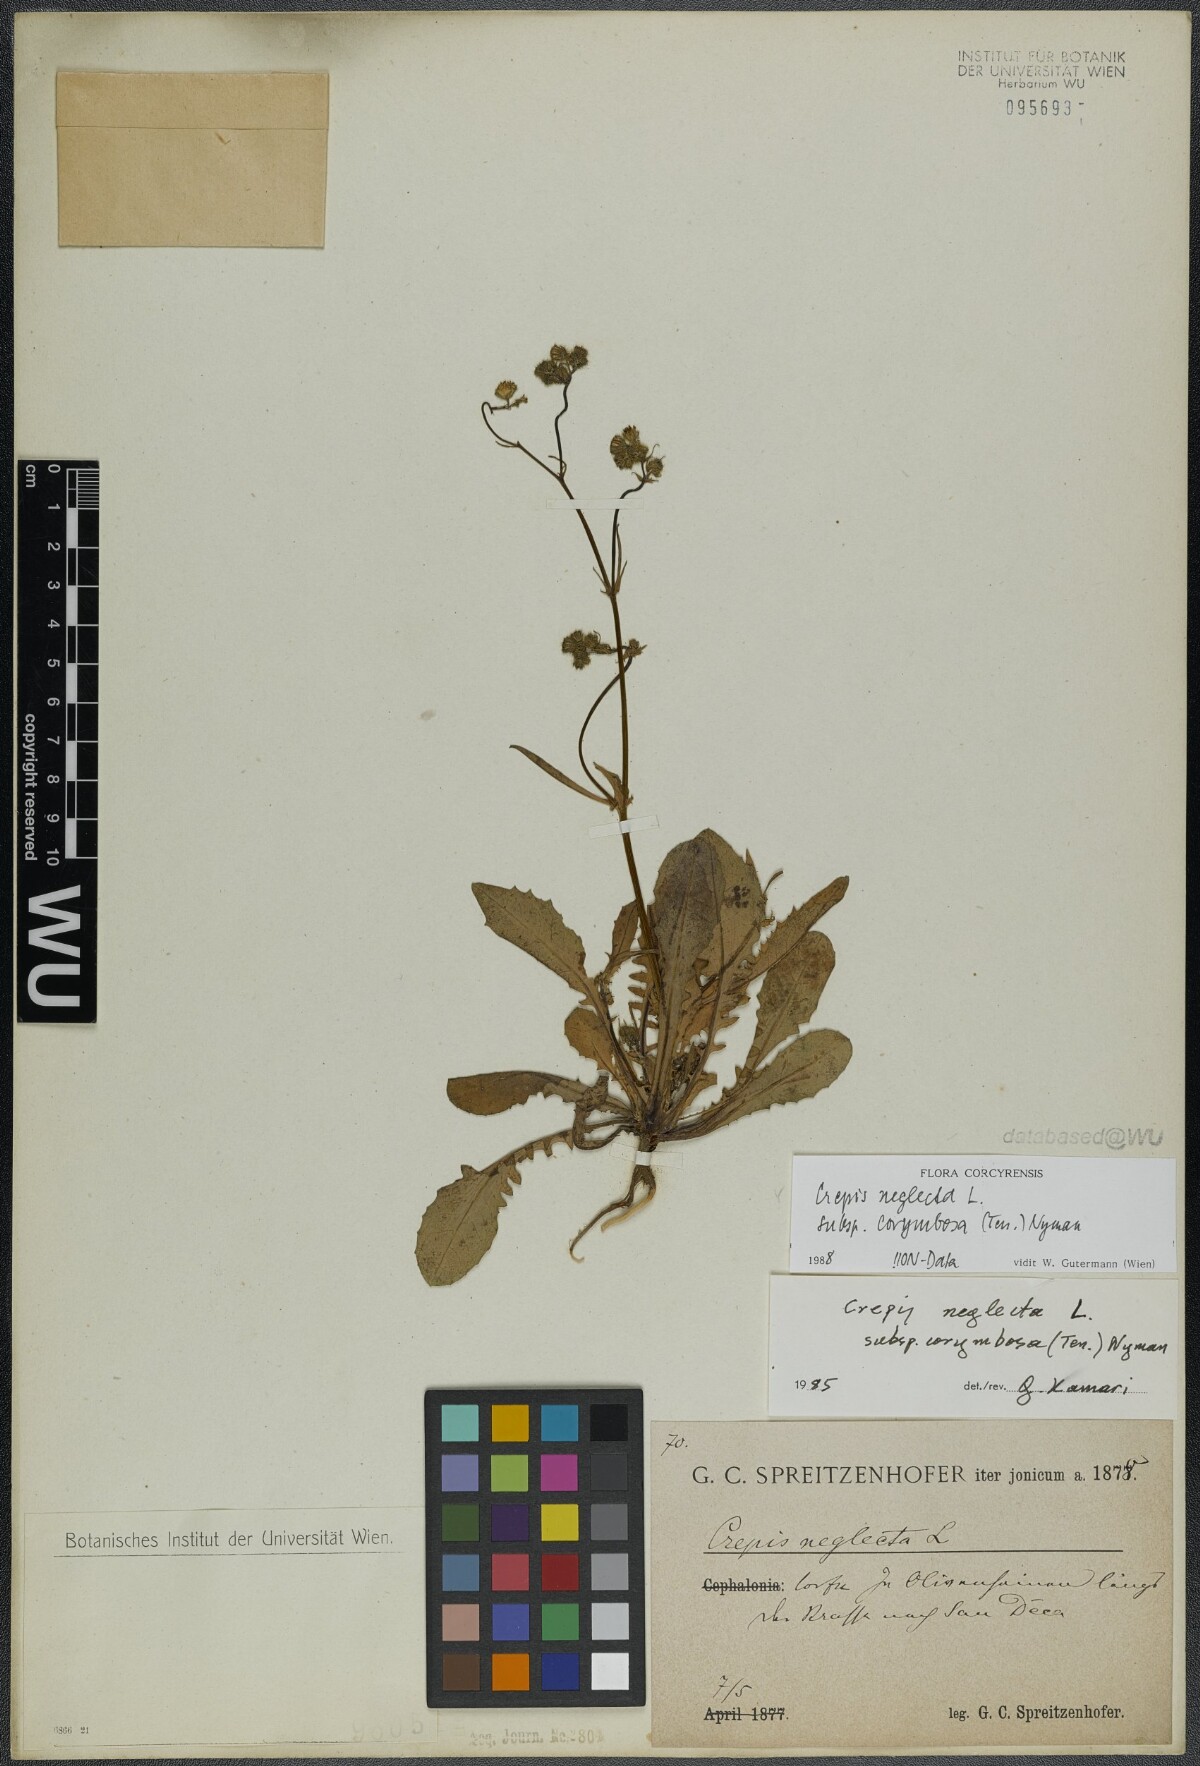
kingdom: Plantae
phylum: Tracheophyta
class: Magnoliopsida
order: Asterales
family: Asteraceae
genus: Crepis
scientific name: Crepis neglecta
